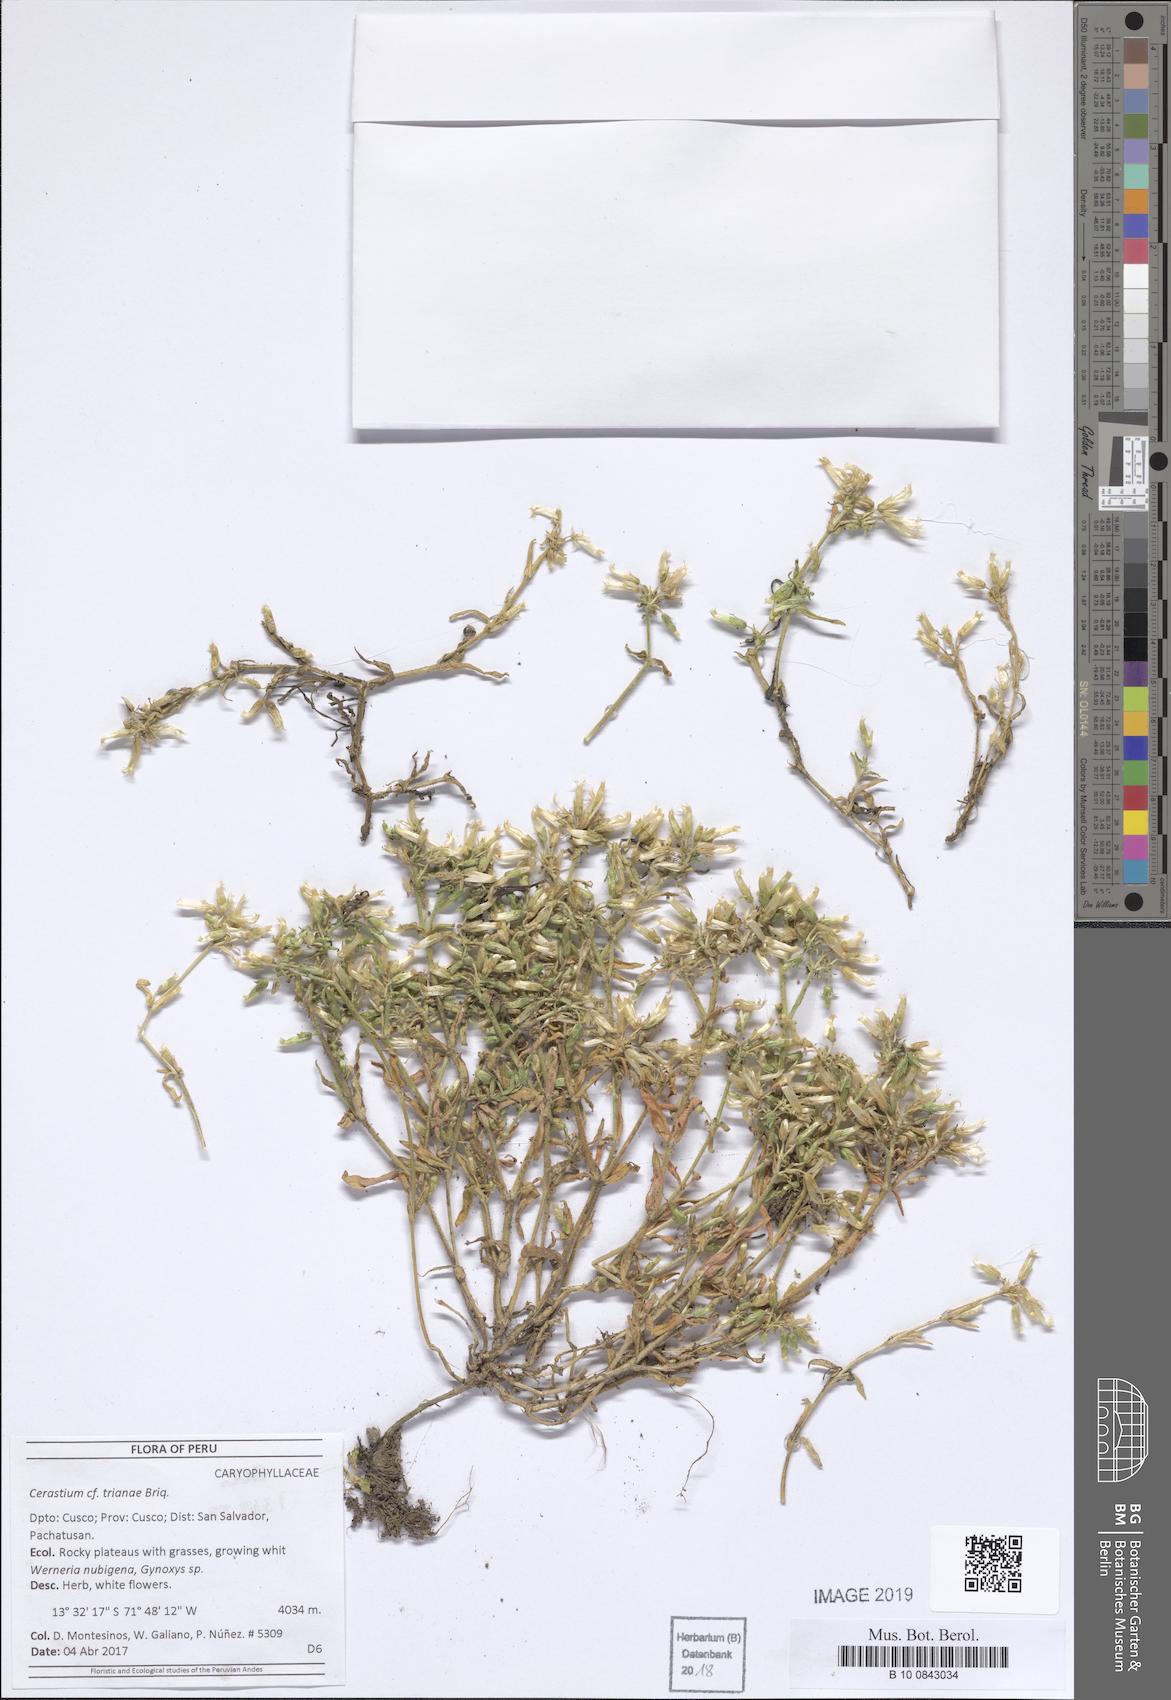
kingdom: Plantae
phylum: Tracheophyta
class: Magnoliopsida
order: Caryophyllales
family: Caryophyllaceae
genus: Cerastium
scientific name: Cerastium trianae
